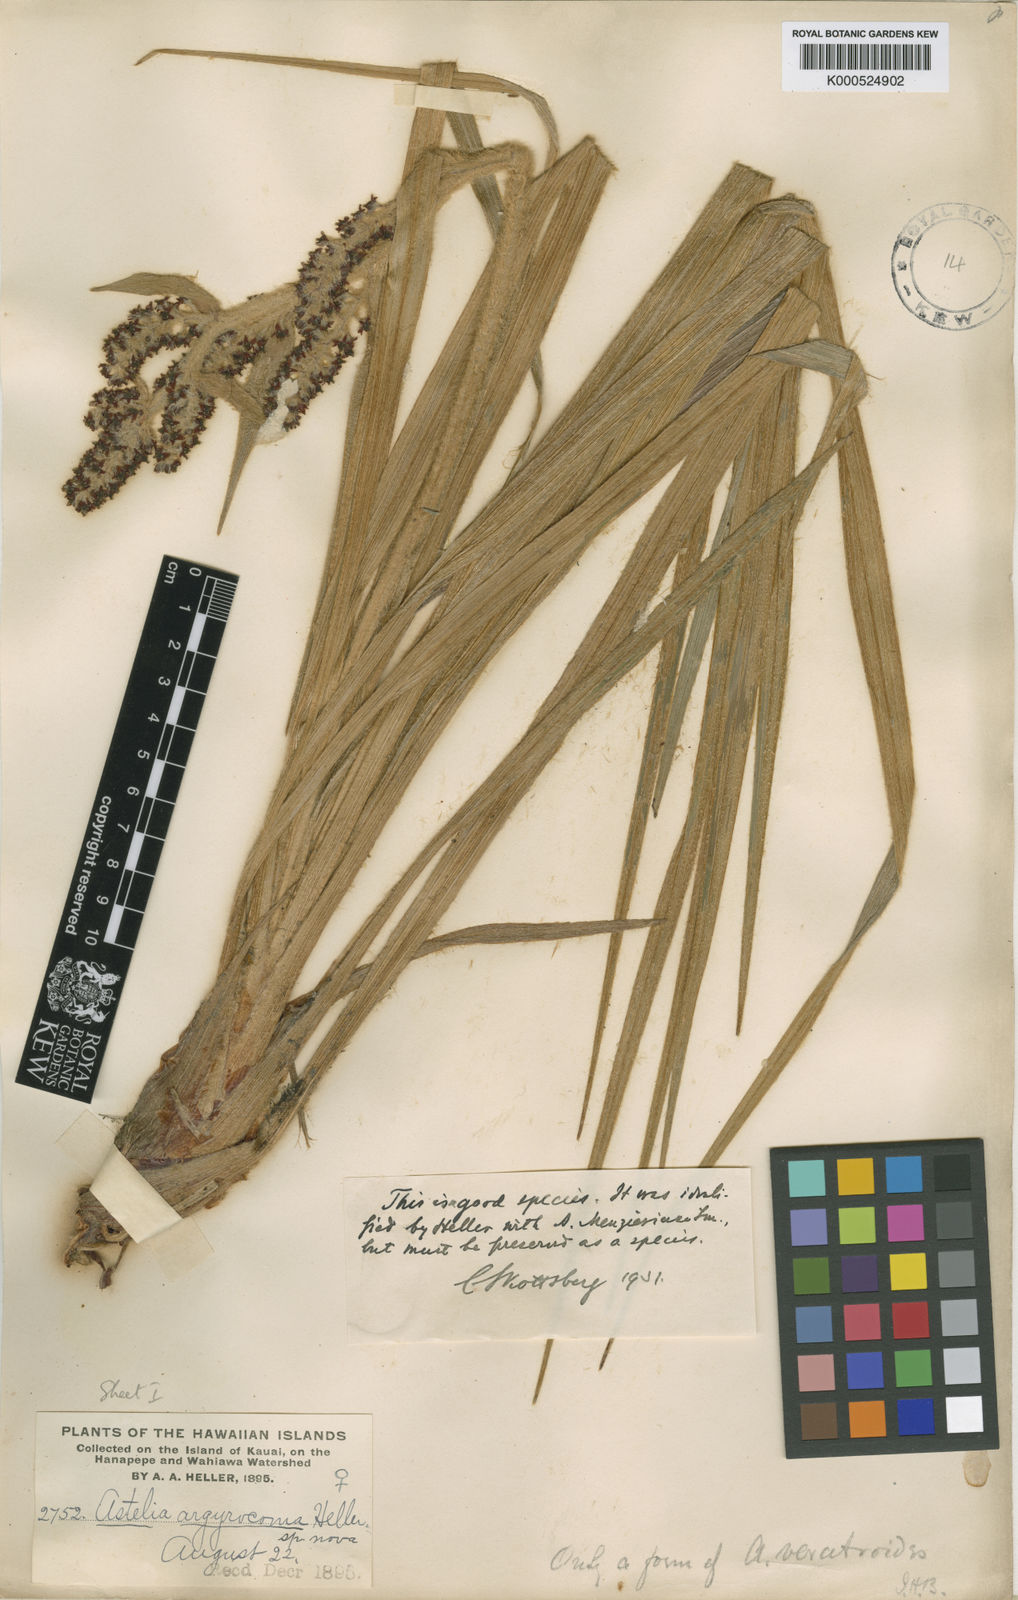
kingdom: Plantae
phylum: Tracheophyta
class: Liliopsida
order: Asparagales
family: Asteliaceae
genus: Astelia
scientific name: Astelia argyrocoma
